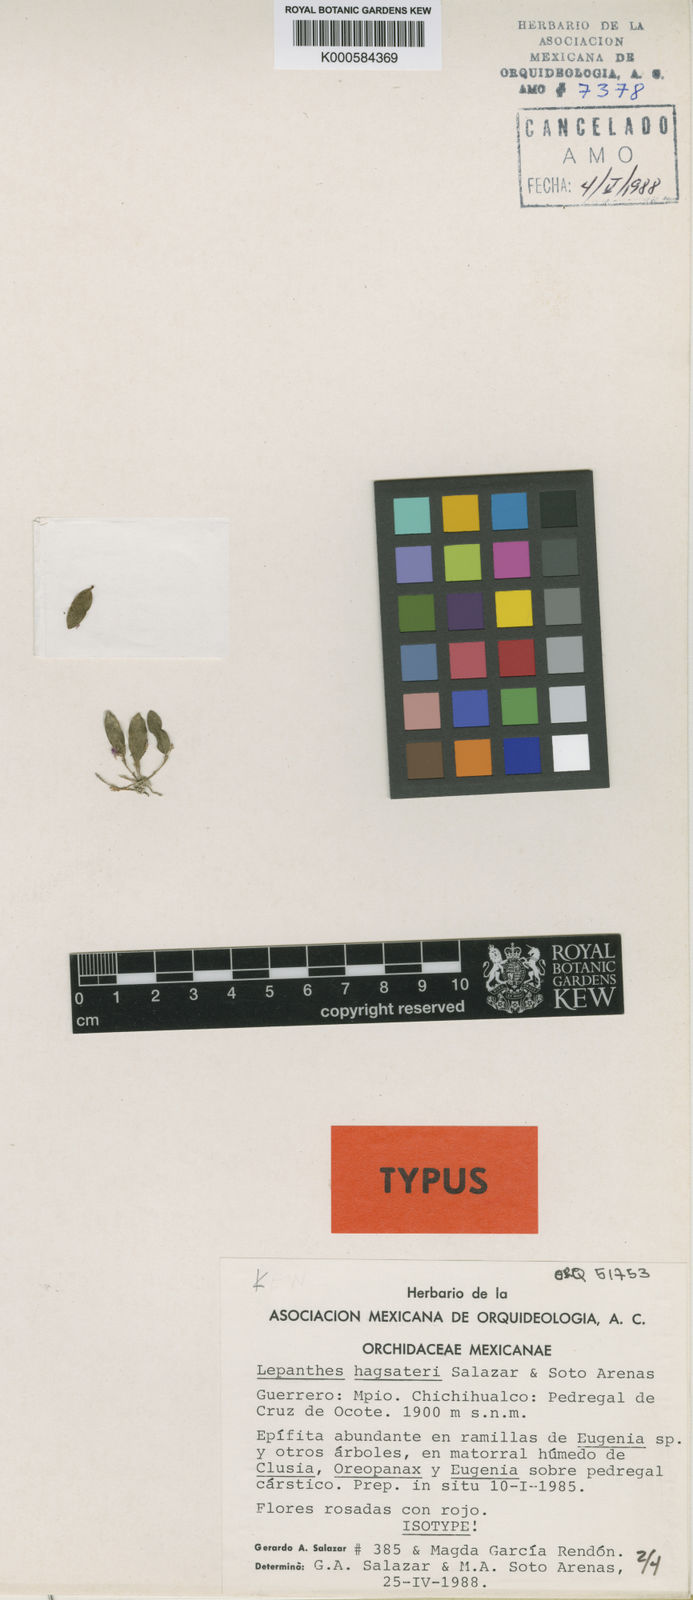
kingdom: Plantae
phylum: Tracheophyta
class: Liliopsida
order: Asparagales
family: Orchidaceae
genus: Lepanthes
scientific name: Lepanthes hagsateri
